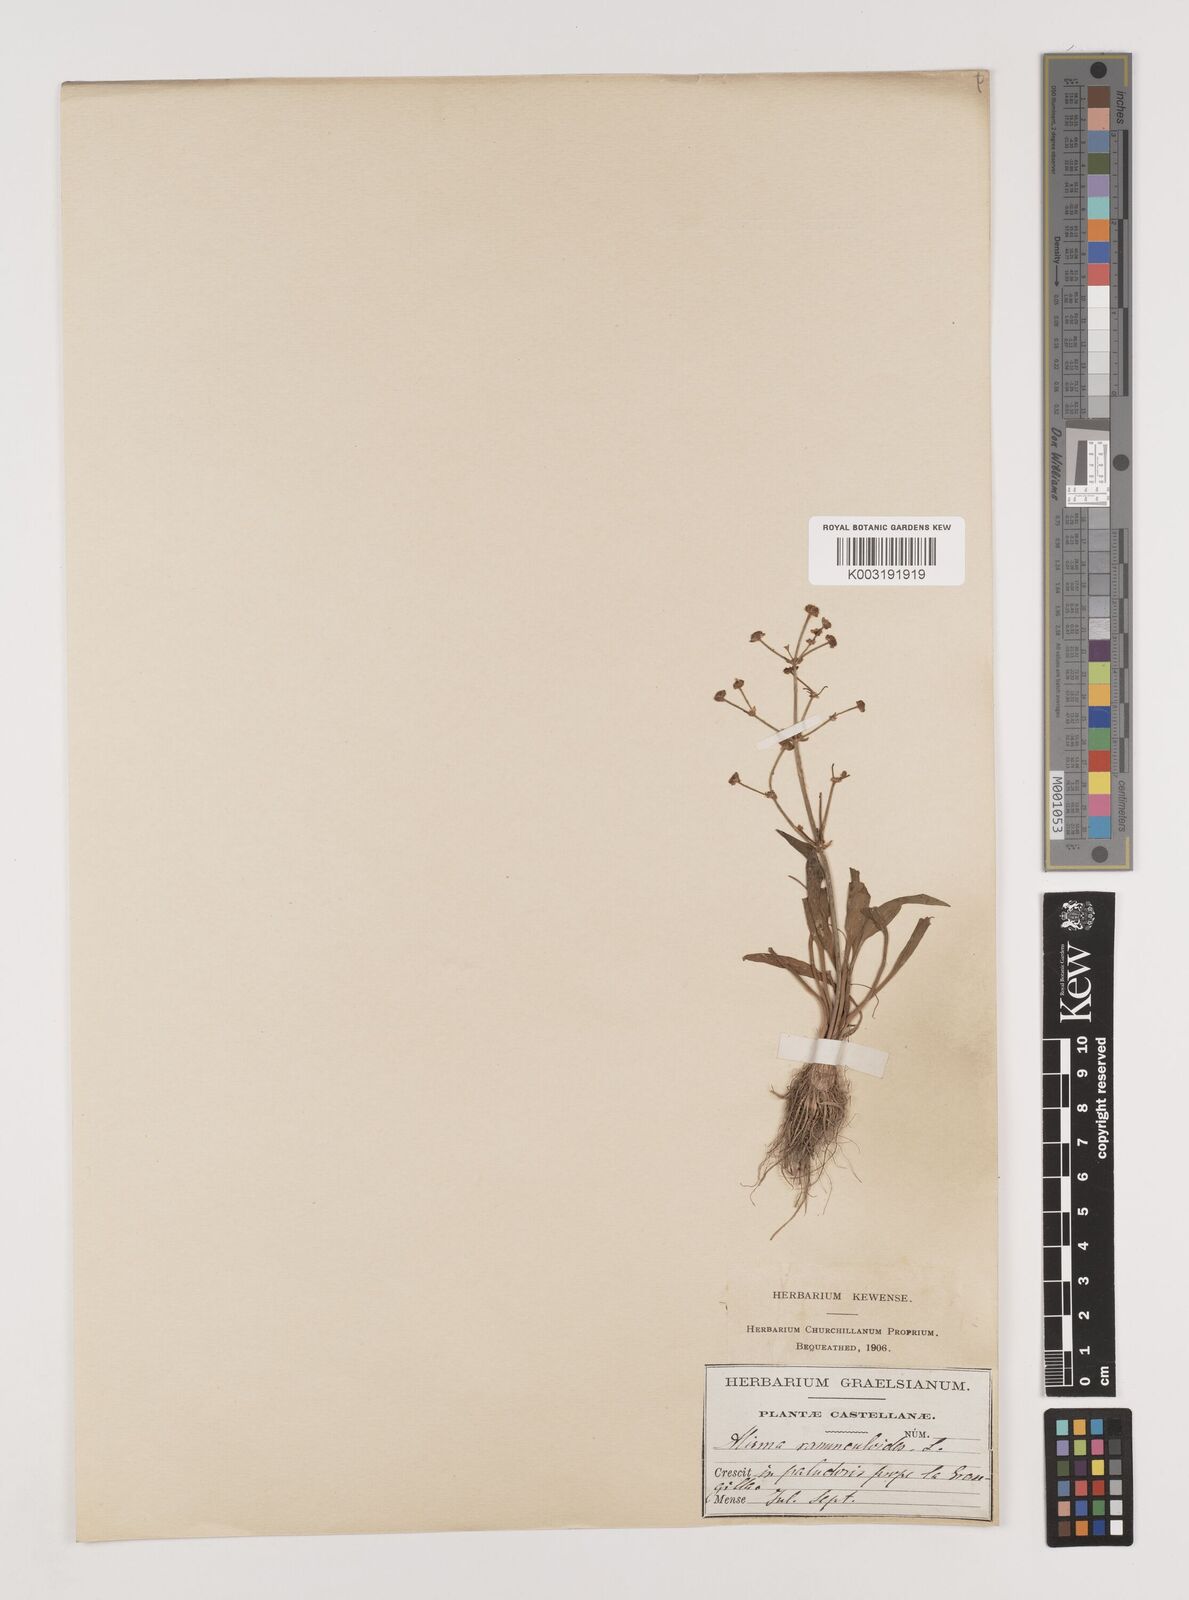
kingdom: Plantae
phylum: Tracheophyta
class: Liliopsida
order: Alismatales
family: Alismataceae
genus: Alisma
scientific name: Alisma gramineum
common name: Ribbon-leaved water-plantain
